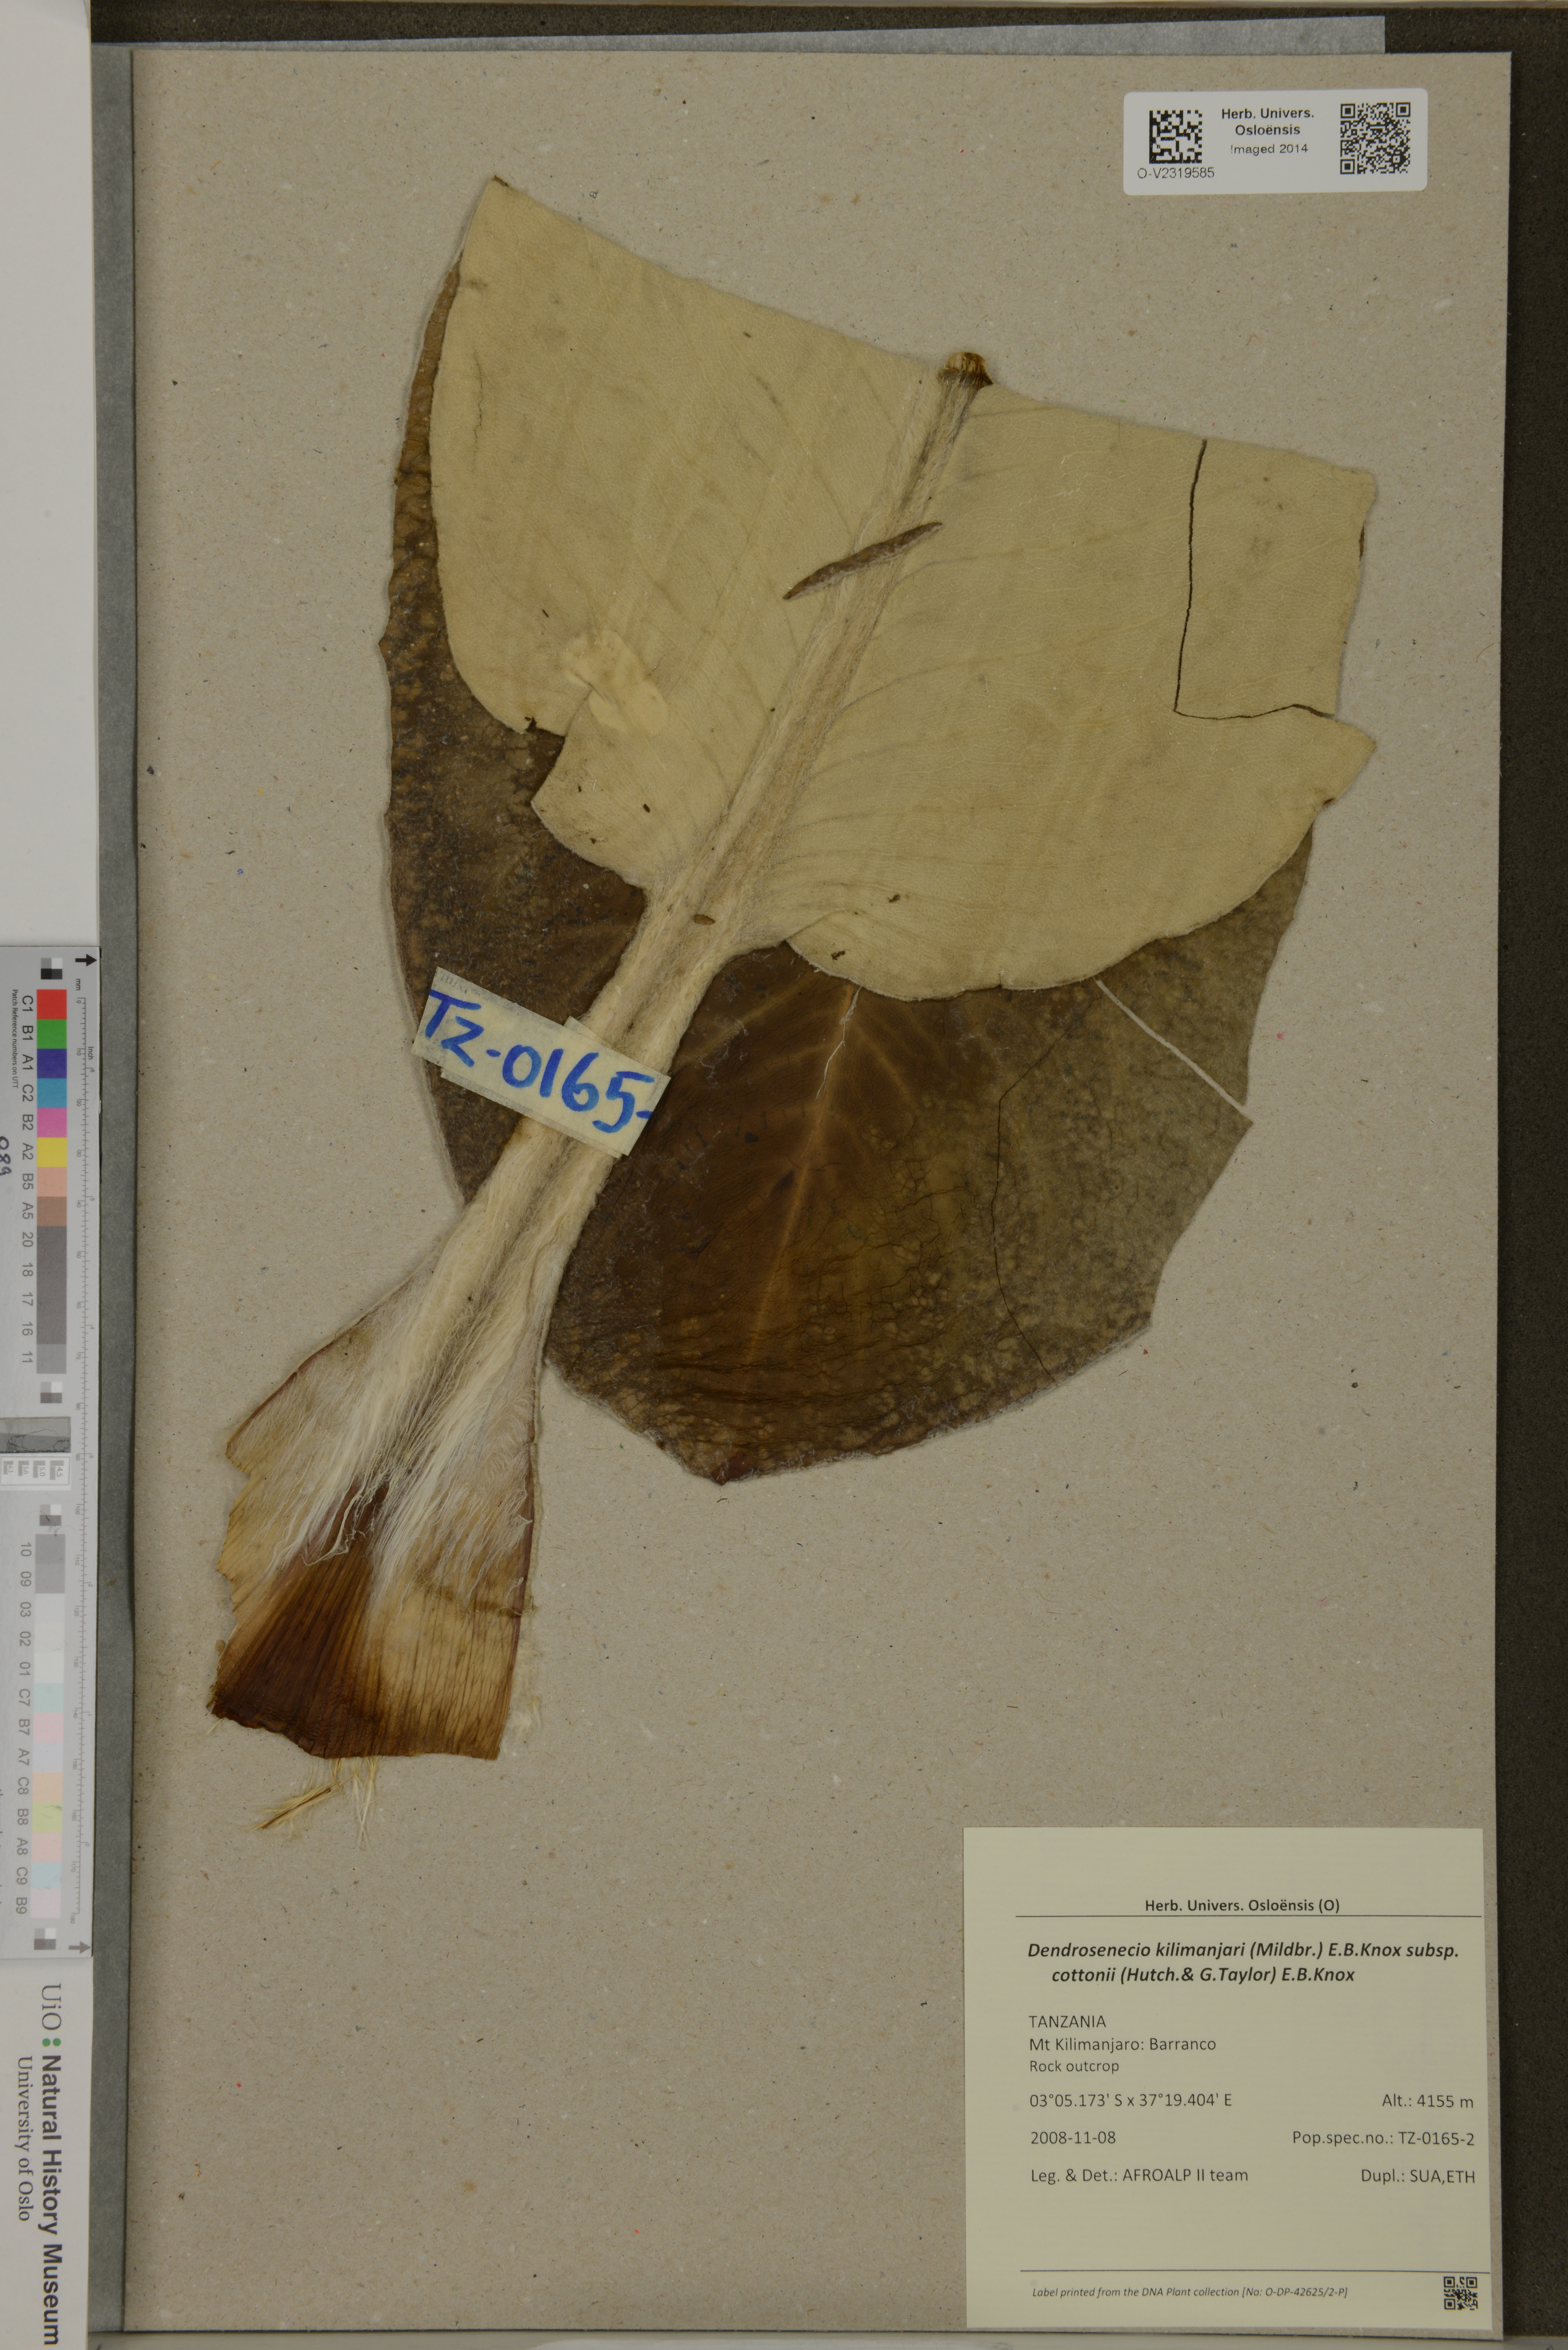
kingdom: Plantae
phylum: Tracheophyta
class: Magnoliopsida
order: Asterales
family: Asteraceae
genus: Dendrosenecio
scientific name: Dendrosenecio kilimanjari
